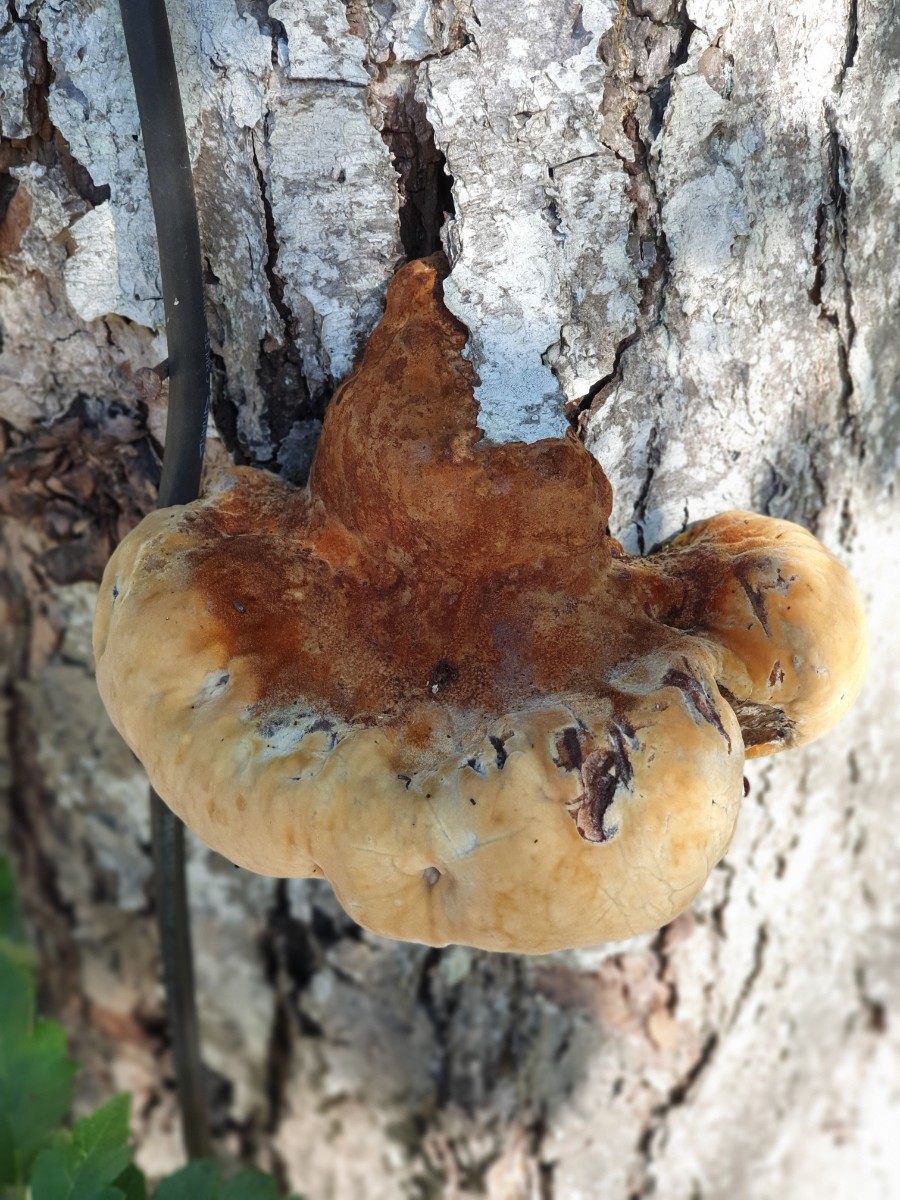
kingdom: Fungi
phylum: Basidiomycota
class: Agaricomycetes
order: Hymenochaetales
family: Hymenochaetaceae
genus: Inonotus
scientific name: Inonotus hispidus
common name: børstehåret spejlporesvamp
